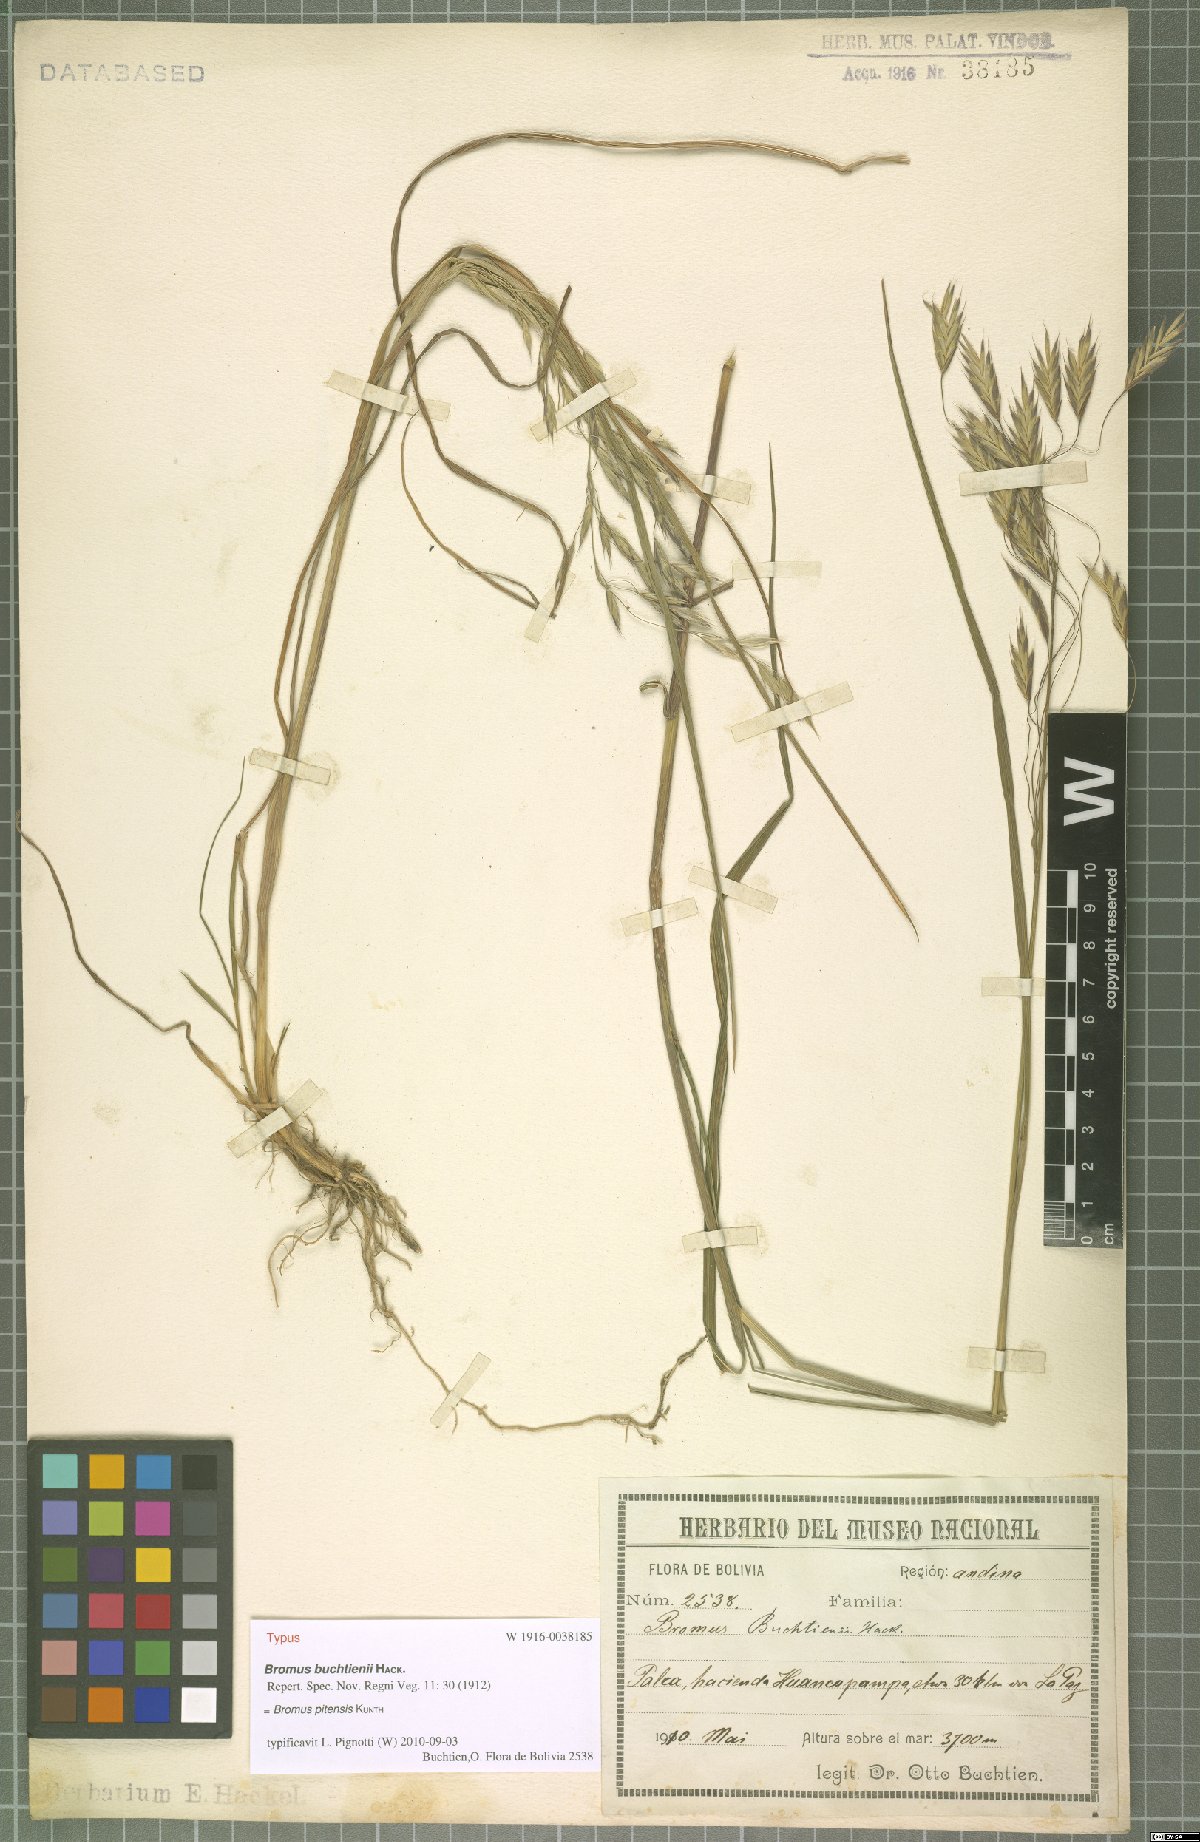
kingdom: Plantae
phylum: Tracheophyta
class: Liliopsida
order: Poales
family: Poaceae
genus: Bromus
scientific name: Bromus pitensis
